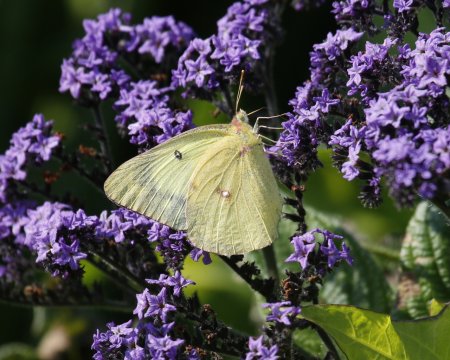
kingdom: Animalia
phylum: Arthropoda
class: Insecta
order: Lepidoptera
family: Pieridae
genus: Colias
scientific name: Colias philodice
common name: Clouded Sulphur
